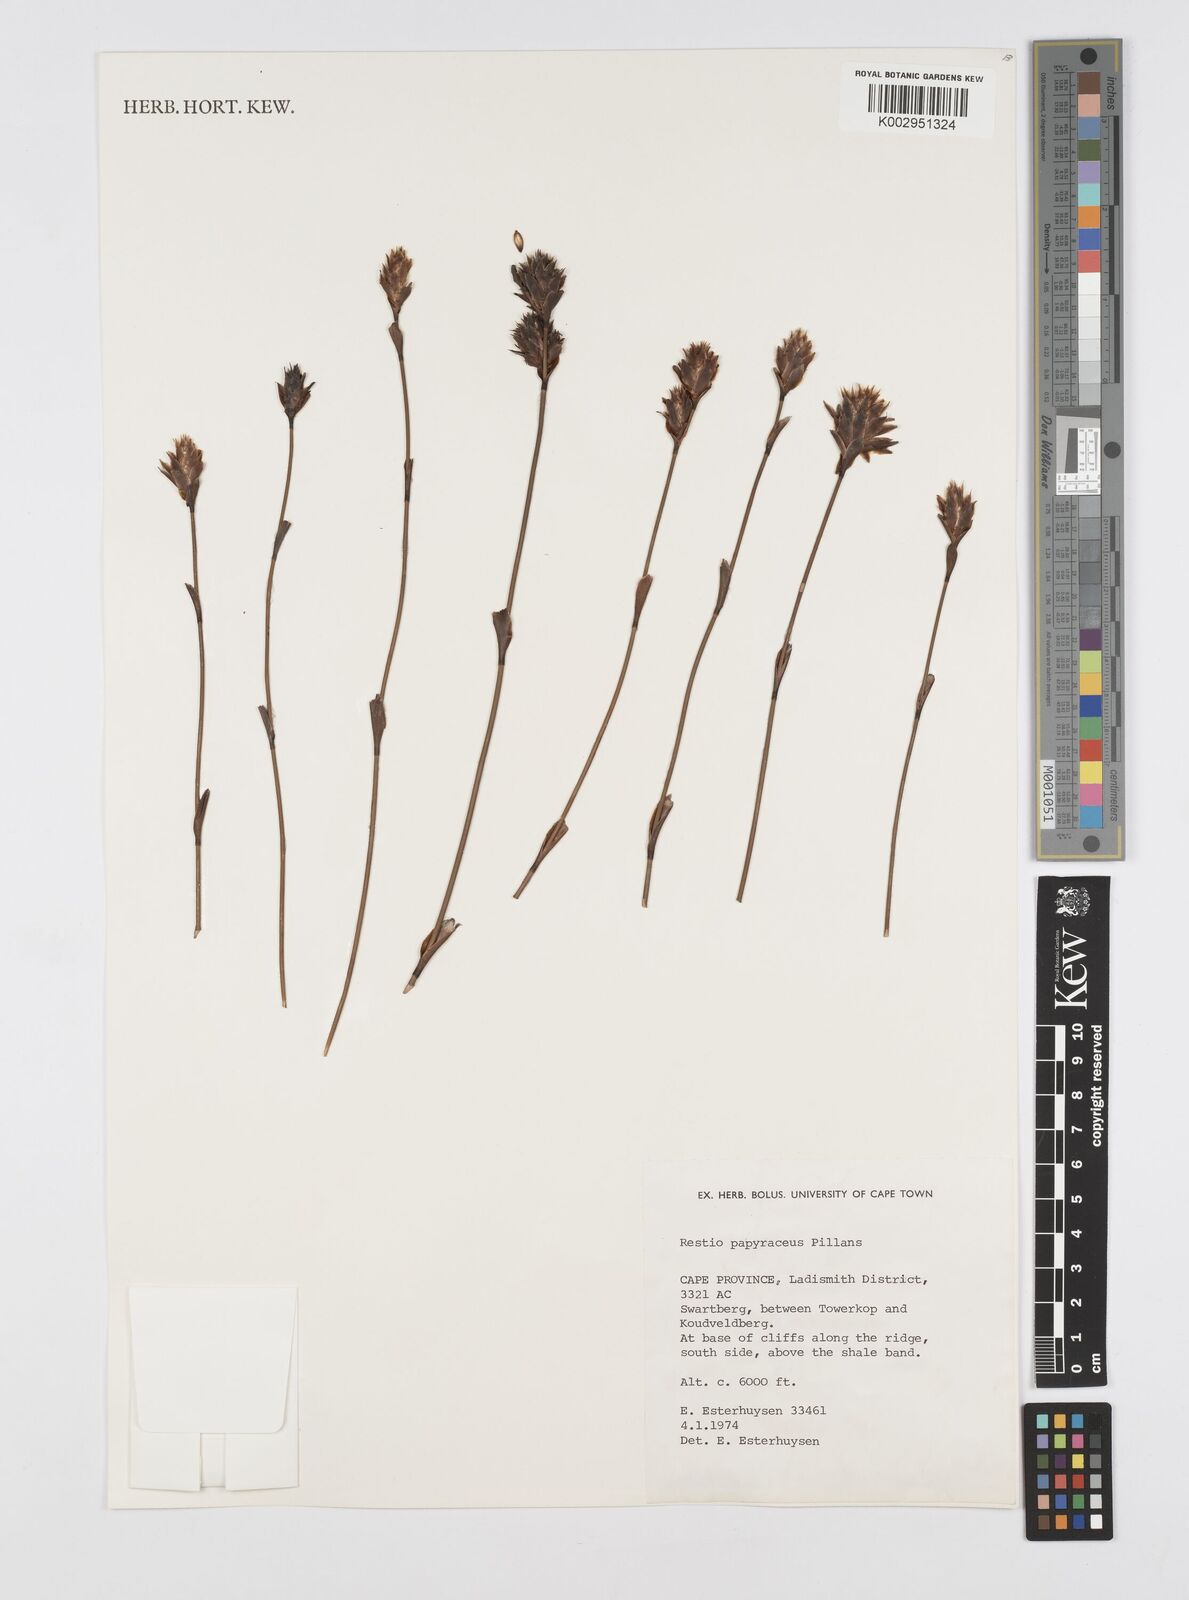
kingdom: Plantae
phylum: Tracheophyta
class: Liliopsida
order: Poales
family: Restionaceae
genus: Restio
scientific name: Restio papyraceus
